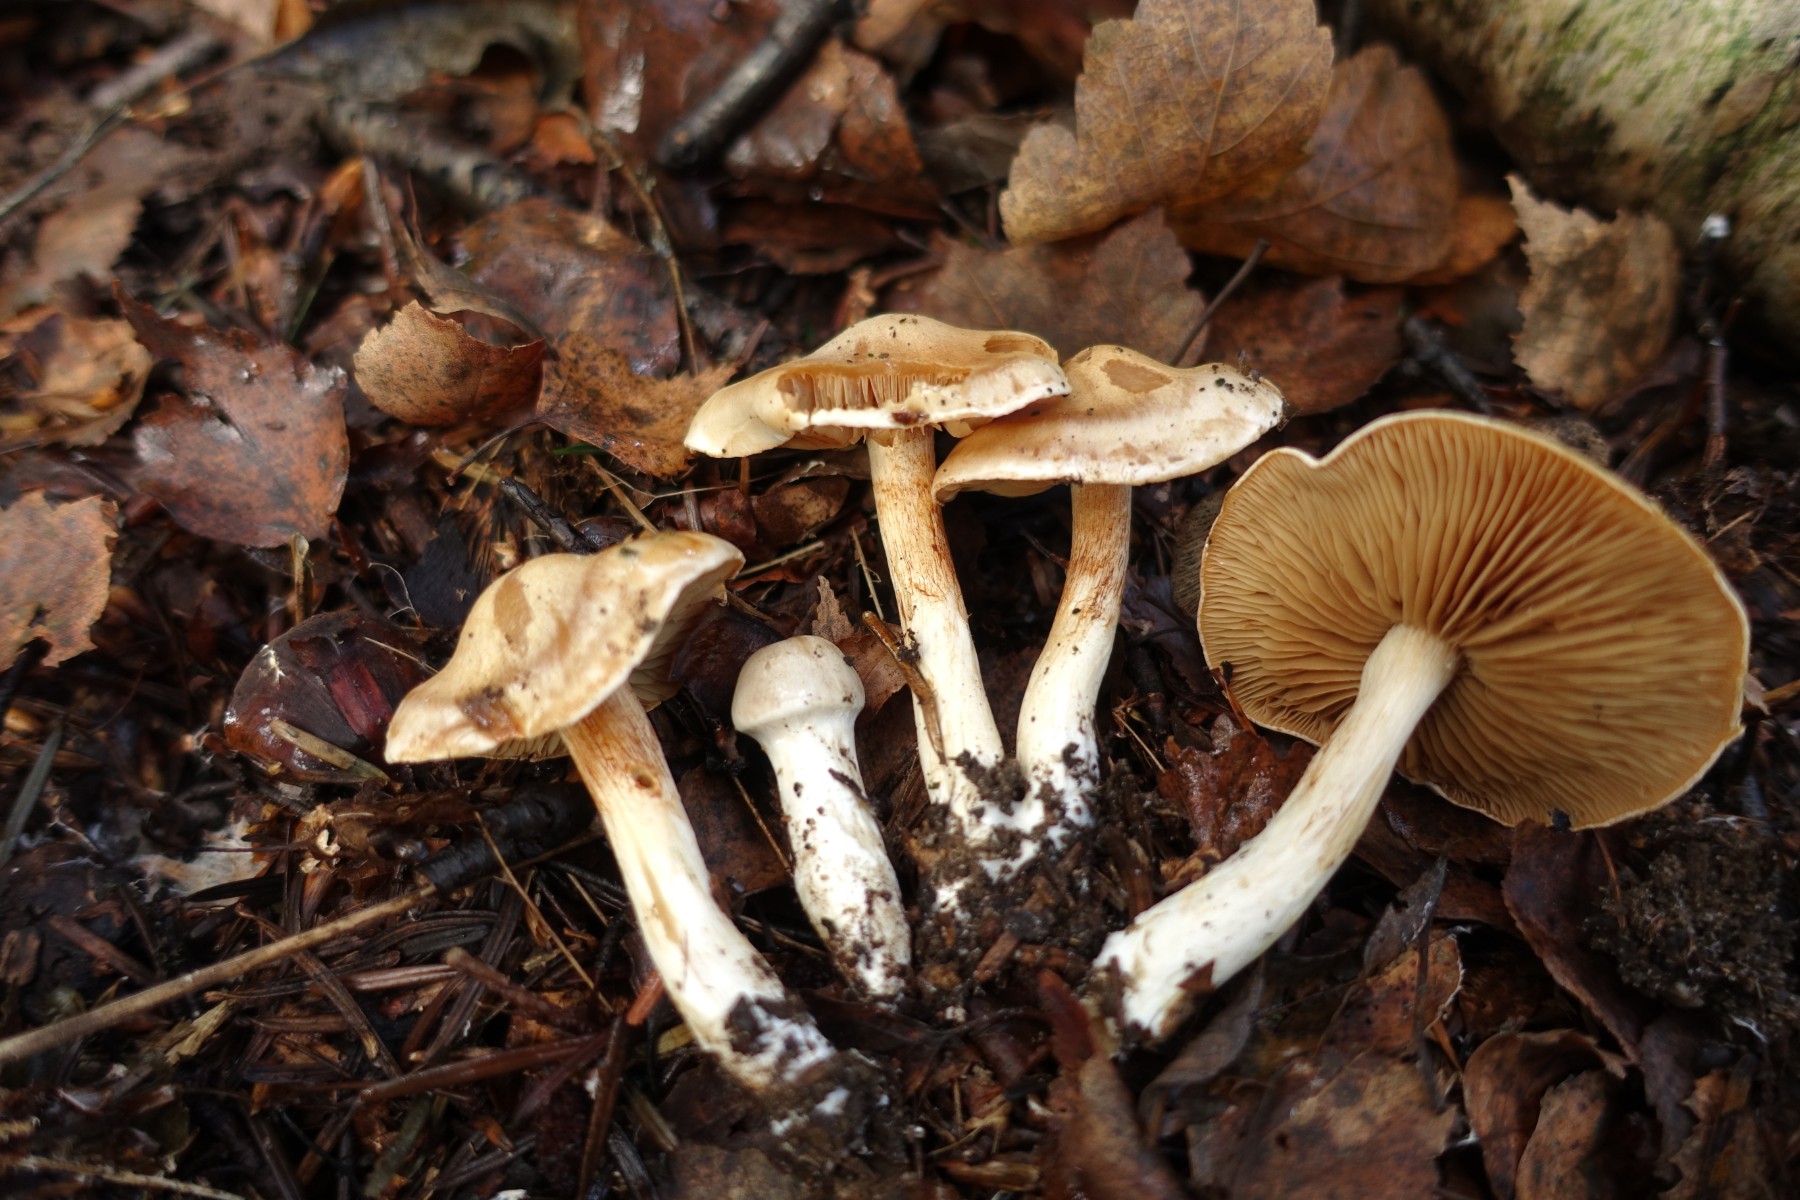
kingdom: Fungi
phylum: Basidiomycota
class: Agaricomycetes
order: Agaricales
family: Cortinariaceae
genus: Thaxterogaster
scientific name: Thaxterogaster
